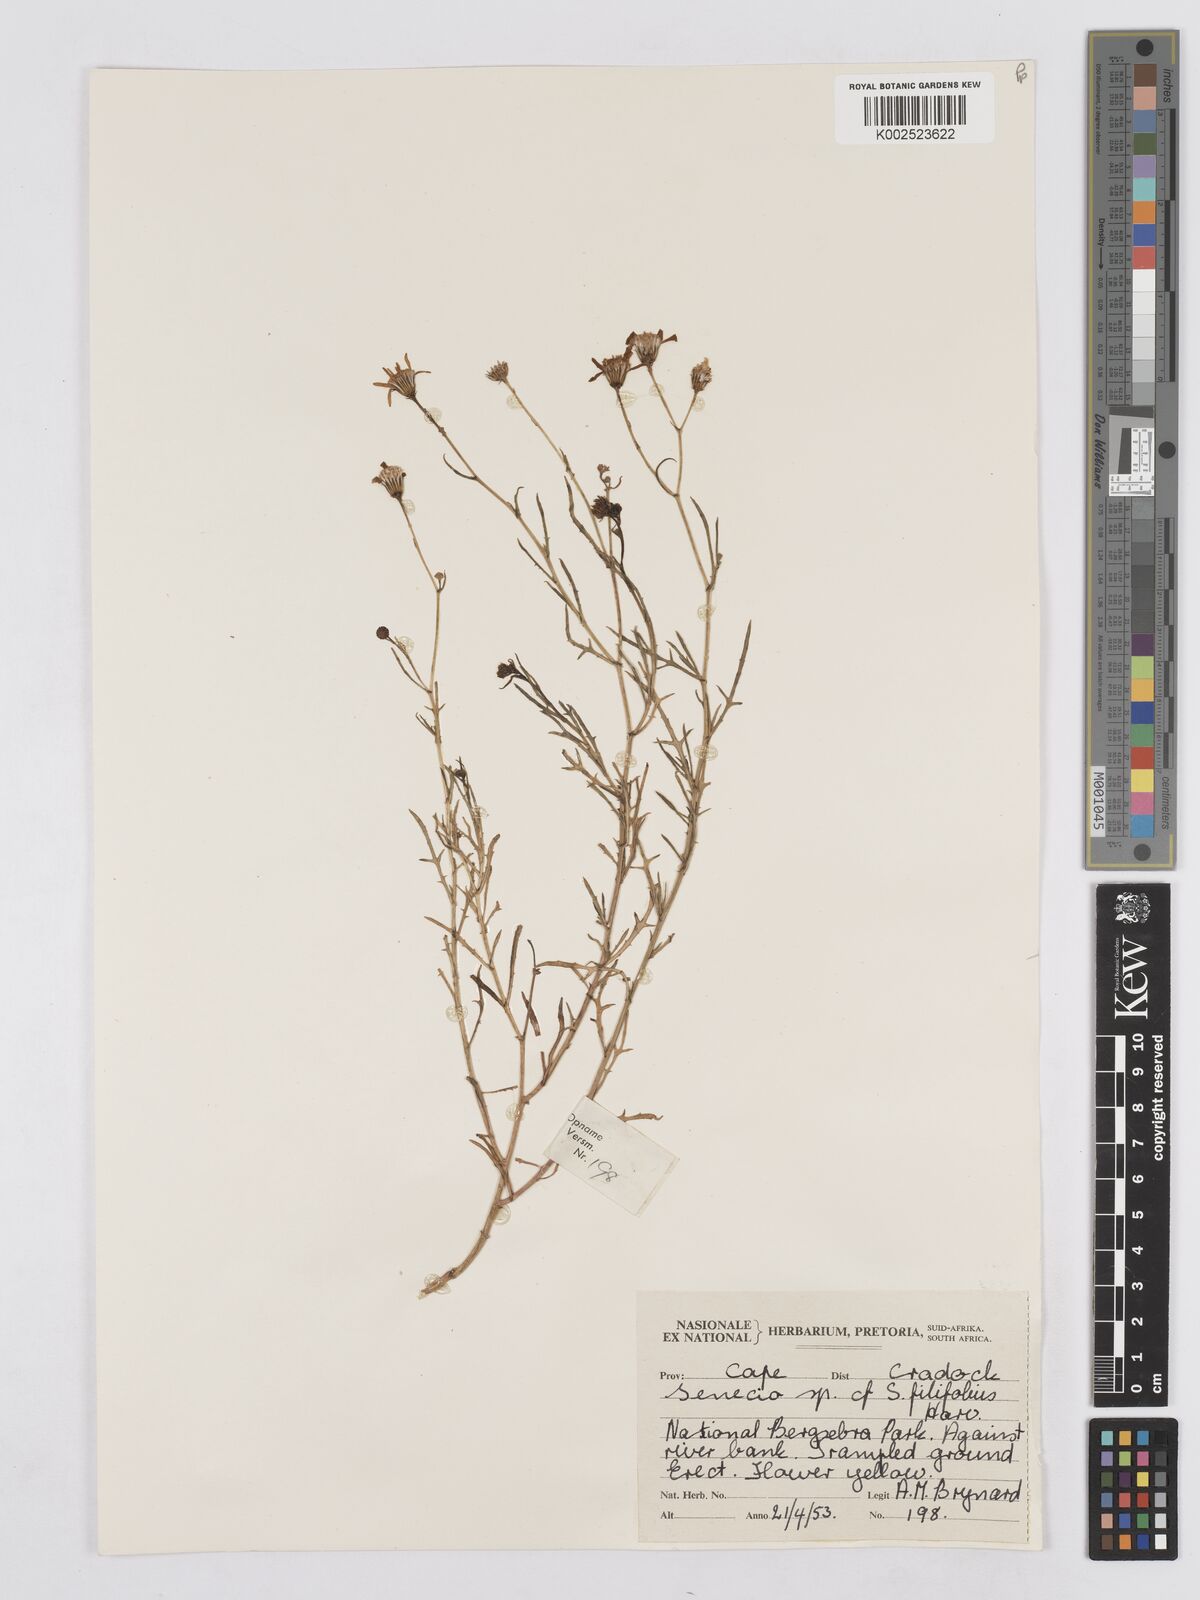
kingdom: Plantae
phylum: Tracheophyta
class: Magnoliopsida
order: Asterales
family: Asteraceae
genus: Senecio
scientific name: Senecio
